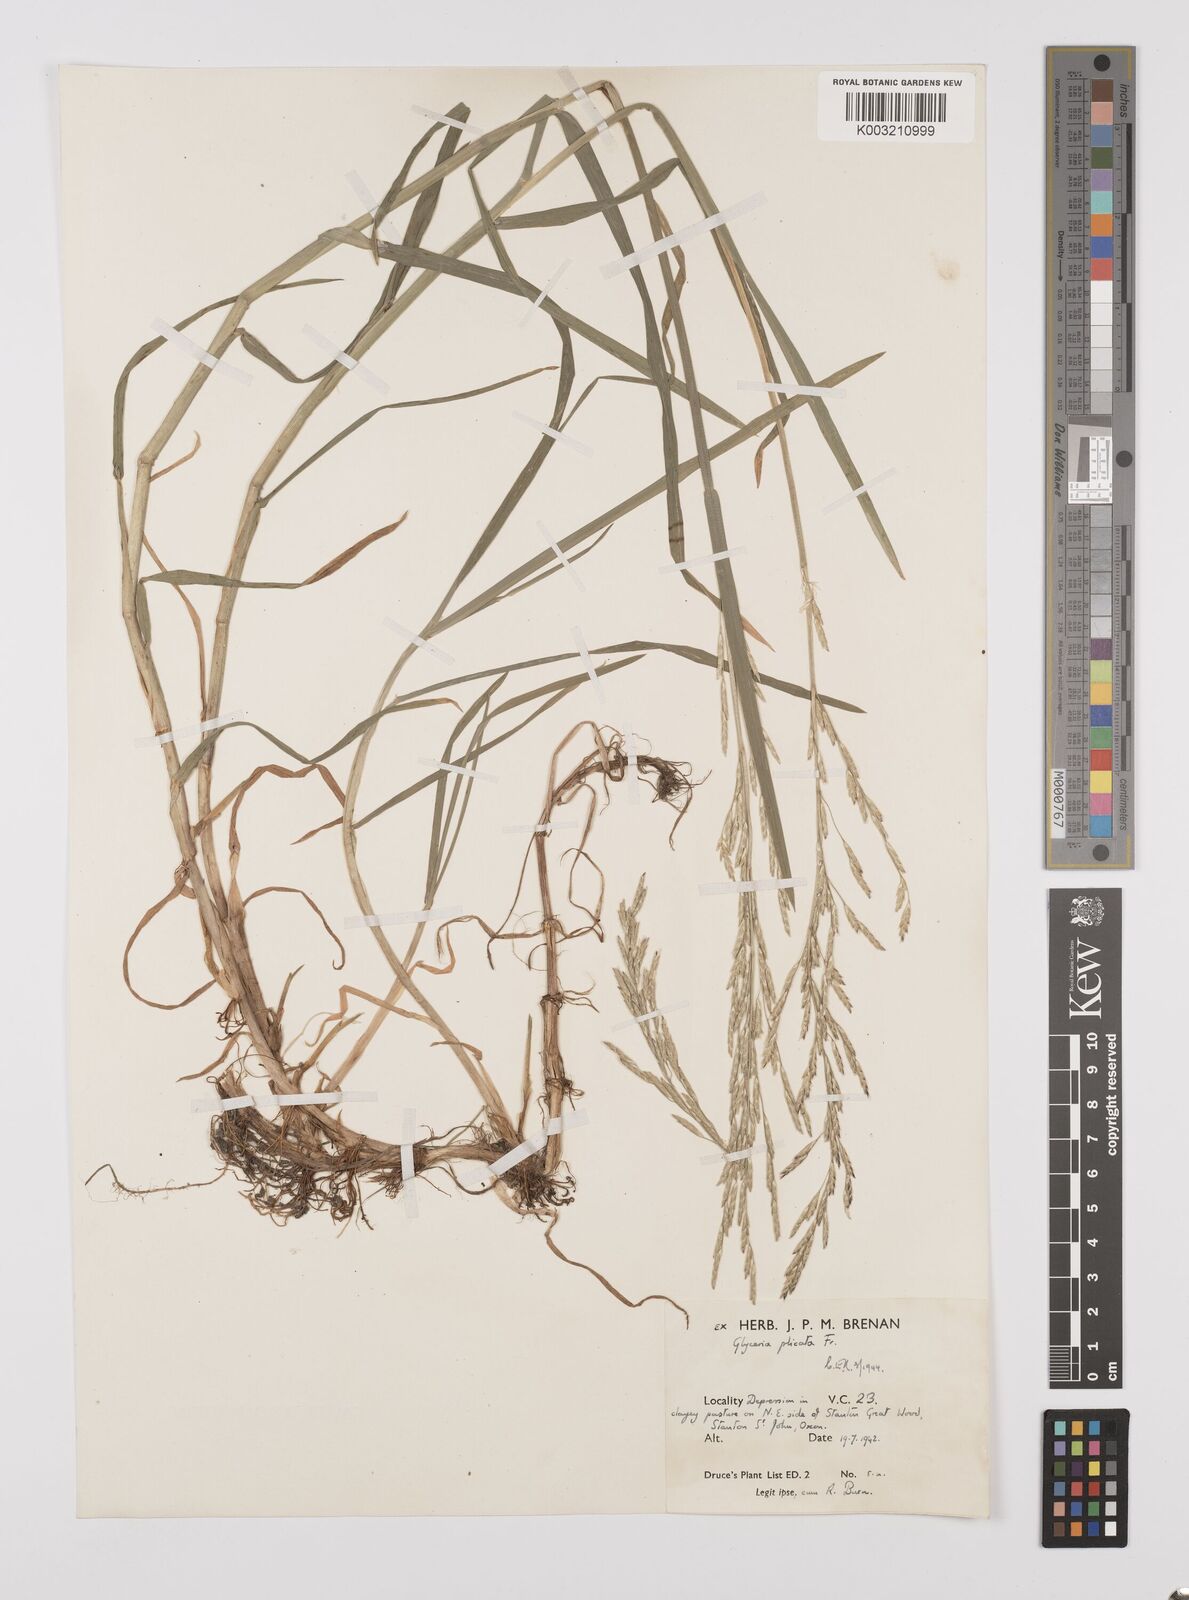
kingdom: Plantae
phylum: Tracheophyta
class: Liliopsida
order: Poales
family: Poaceae
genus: Glyceria
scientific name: Glyceria notata
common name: Plicate sweet-grass
